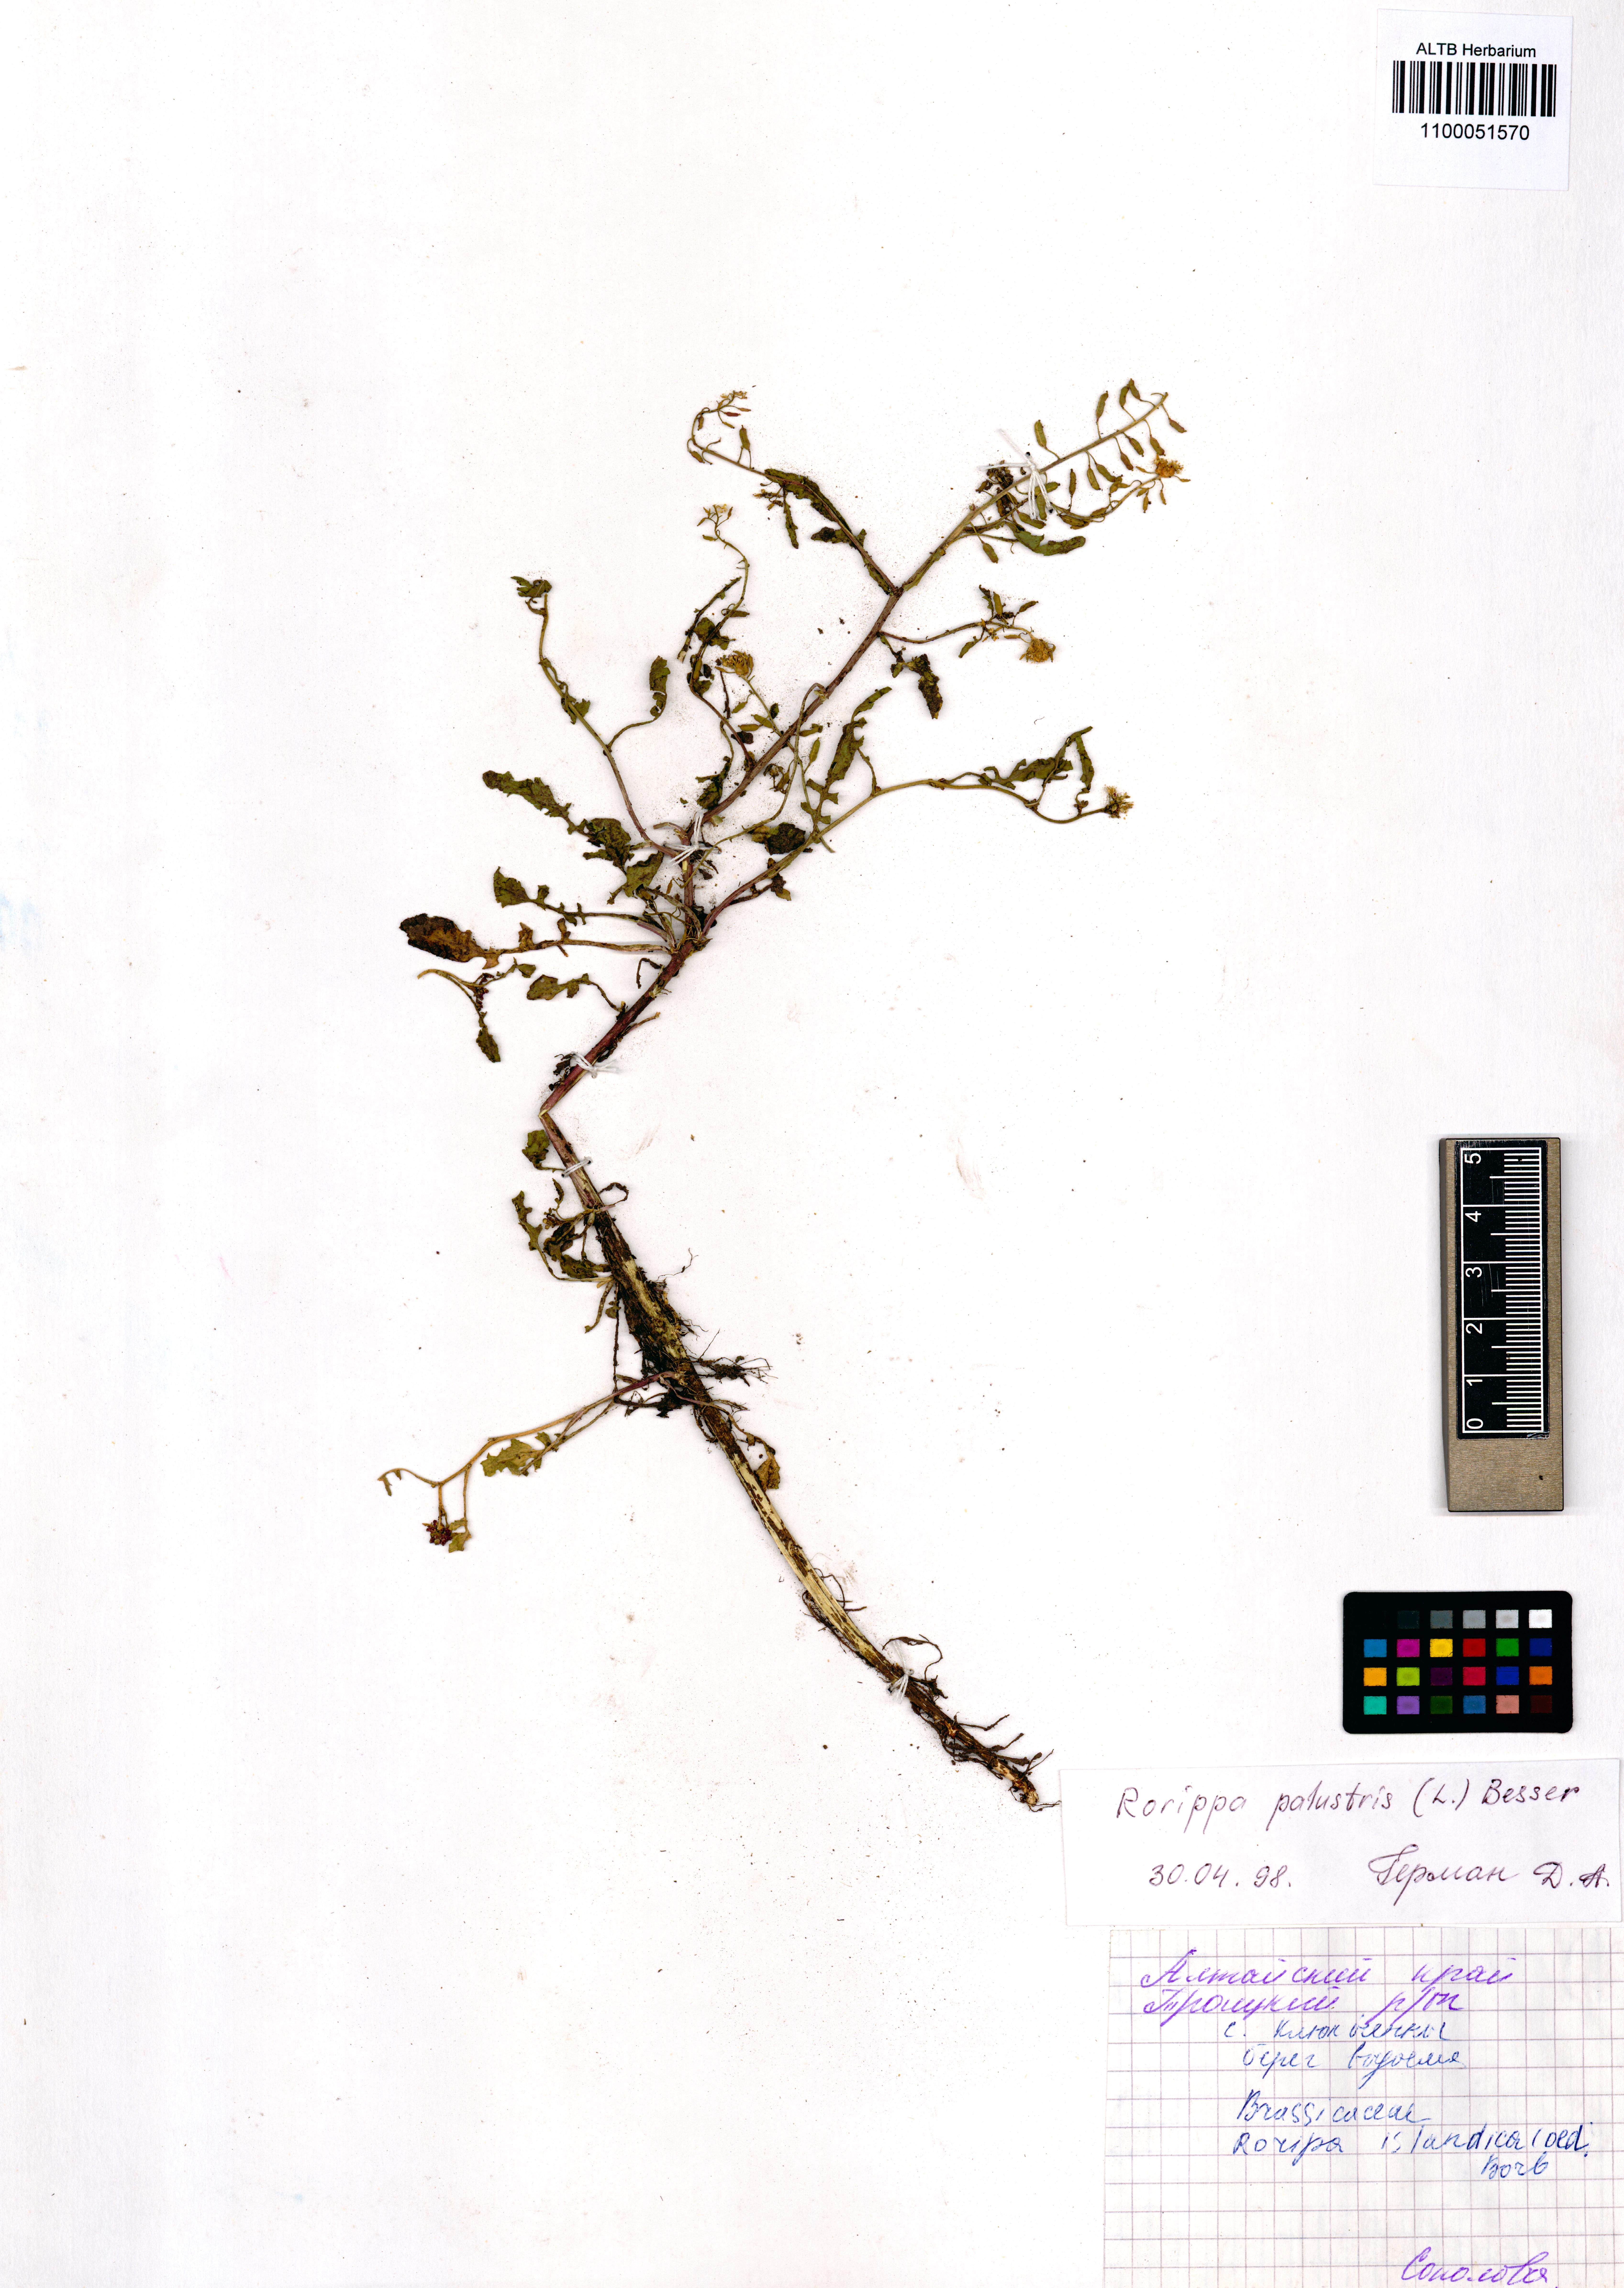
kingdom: Plantae
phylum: Tracheophyta
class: Magnoliopsida
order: Brassicales
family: Brassicaceae
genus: Rorippa
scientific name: Rorippa palustris
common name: Marsh yellow-cress
